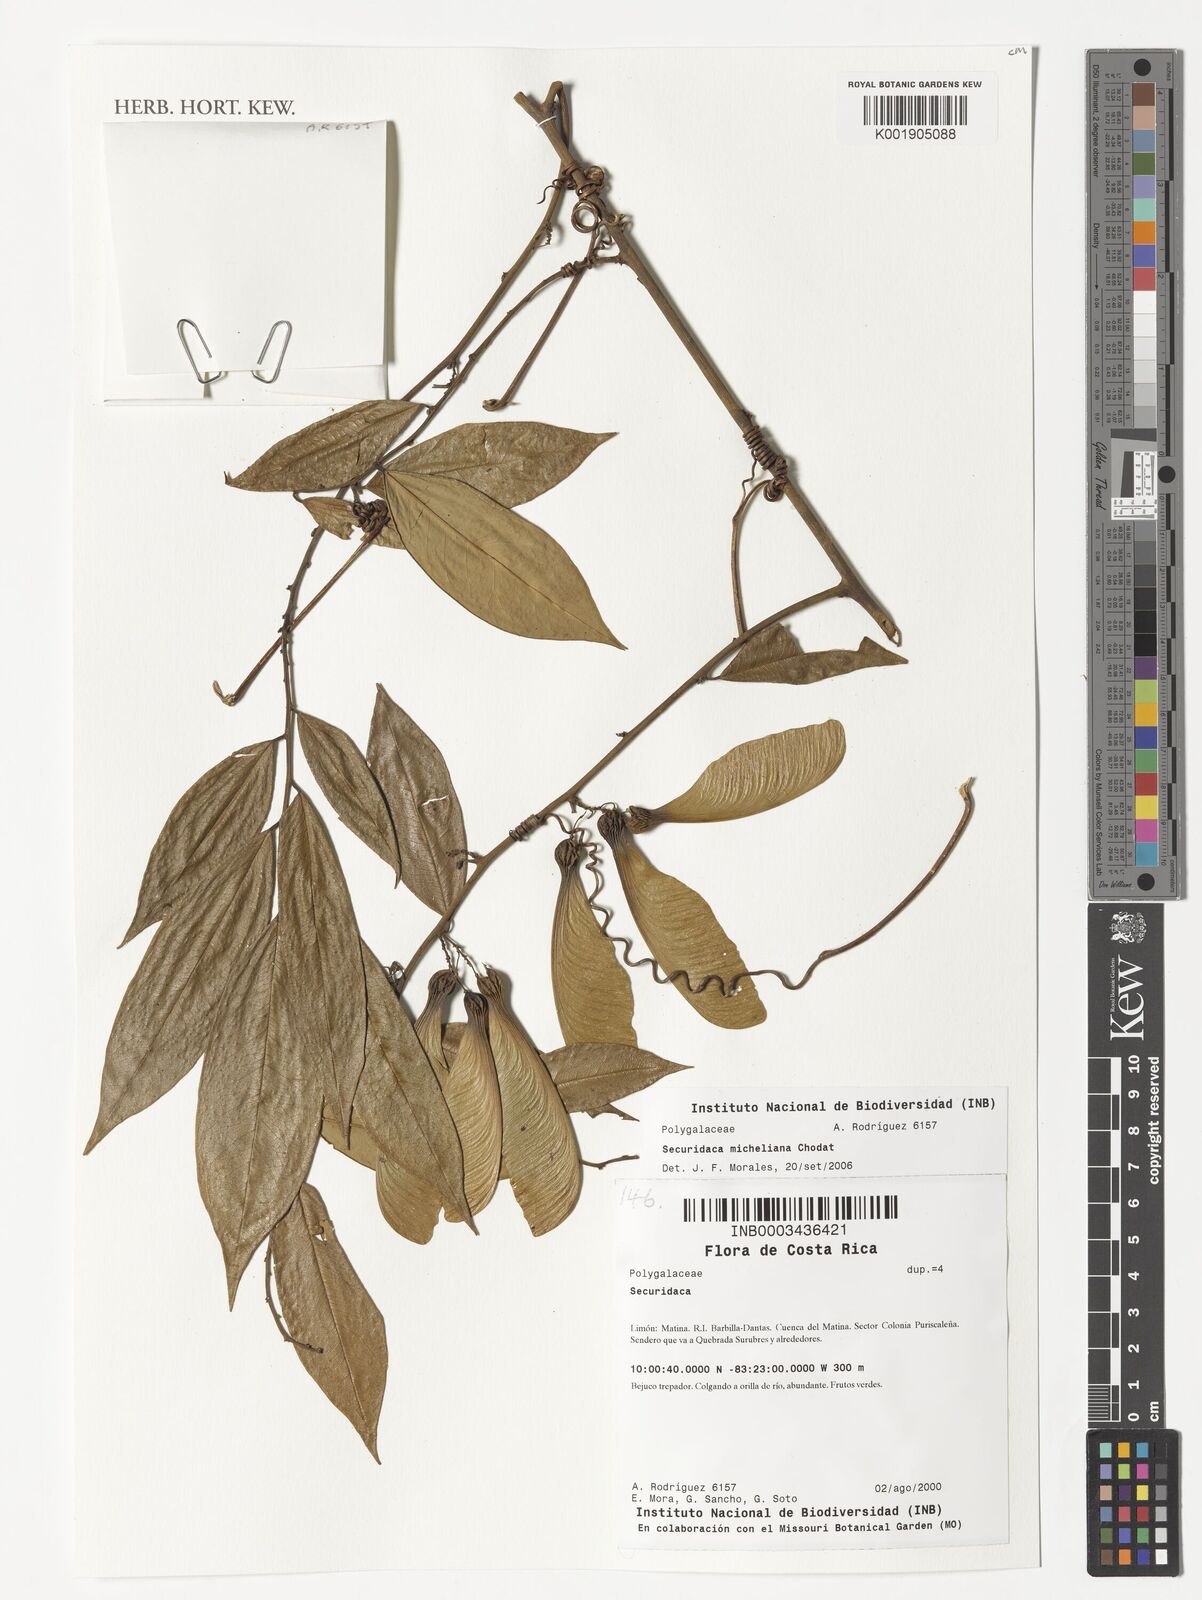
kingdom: Plantae
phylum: Tracheophyta
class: Magnoliopsida
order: Fabales
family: Polygalaceae
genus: Securidaca
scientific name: Securidaca micheliana
